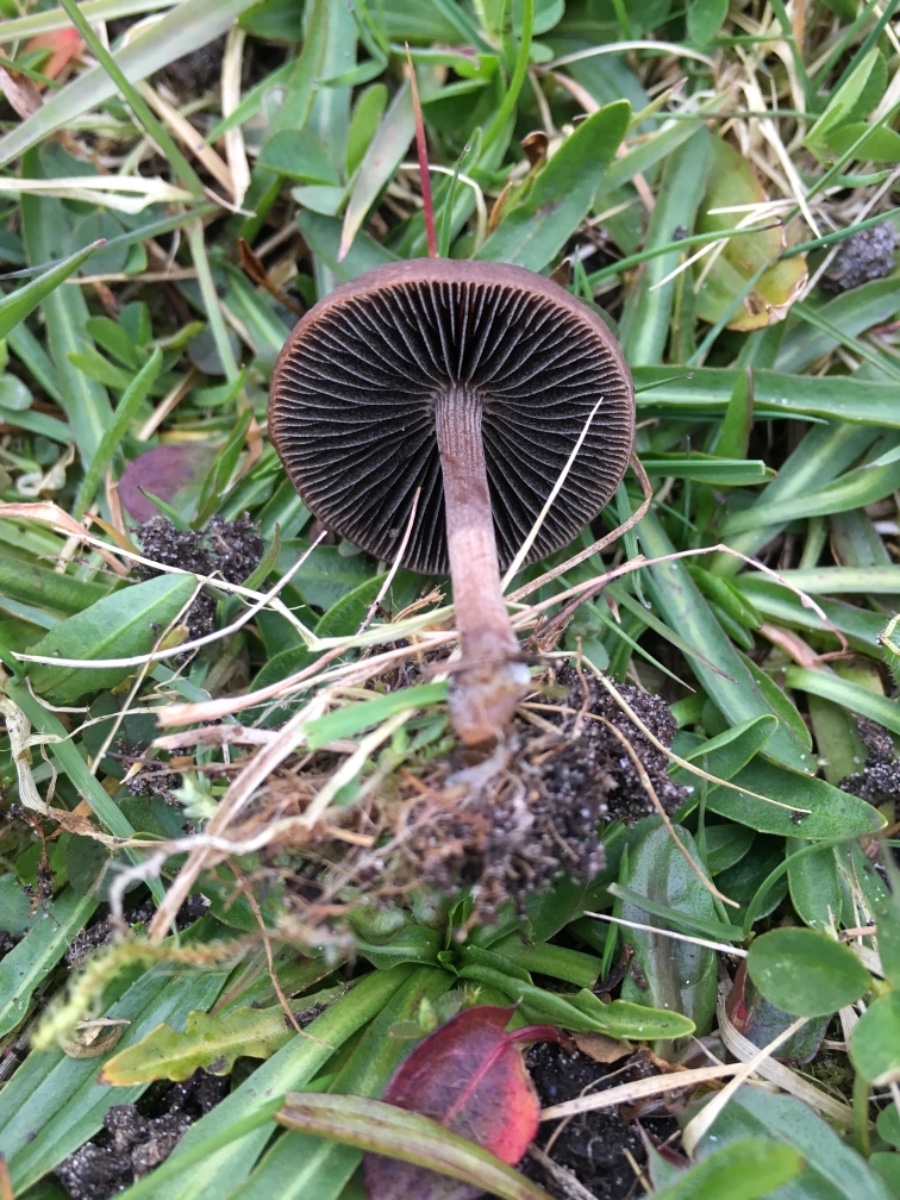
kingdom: Fungi
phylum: Basidiomycota
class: Agaricomycetes
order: Agaricales
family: Bolbitiaceae
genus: Panaeolus
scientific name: Panaeolus fimicola
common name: tidlig glanshat
